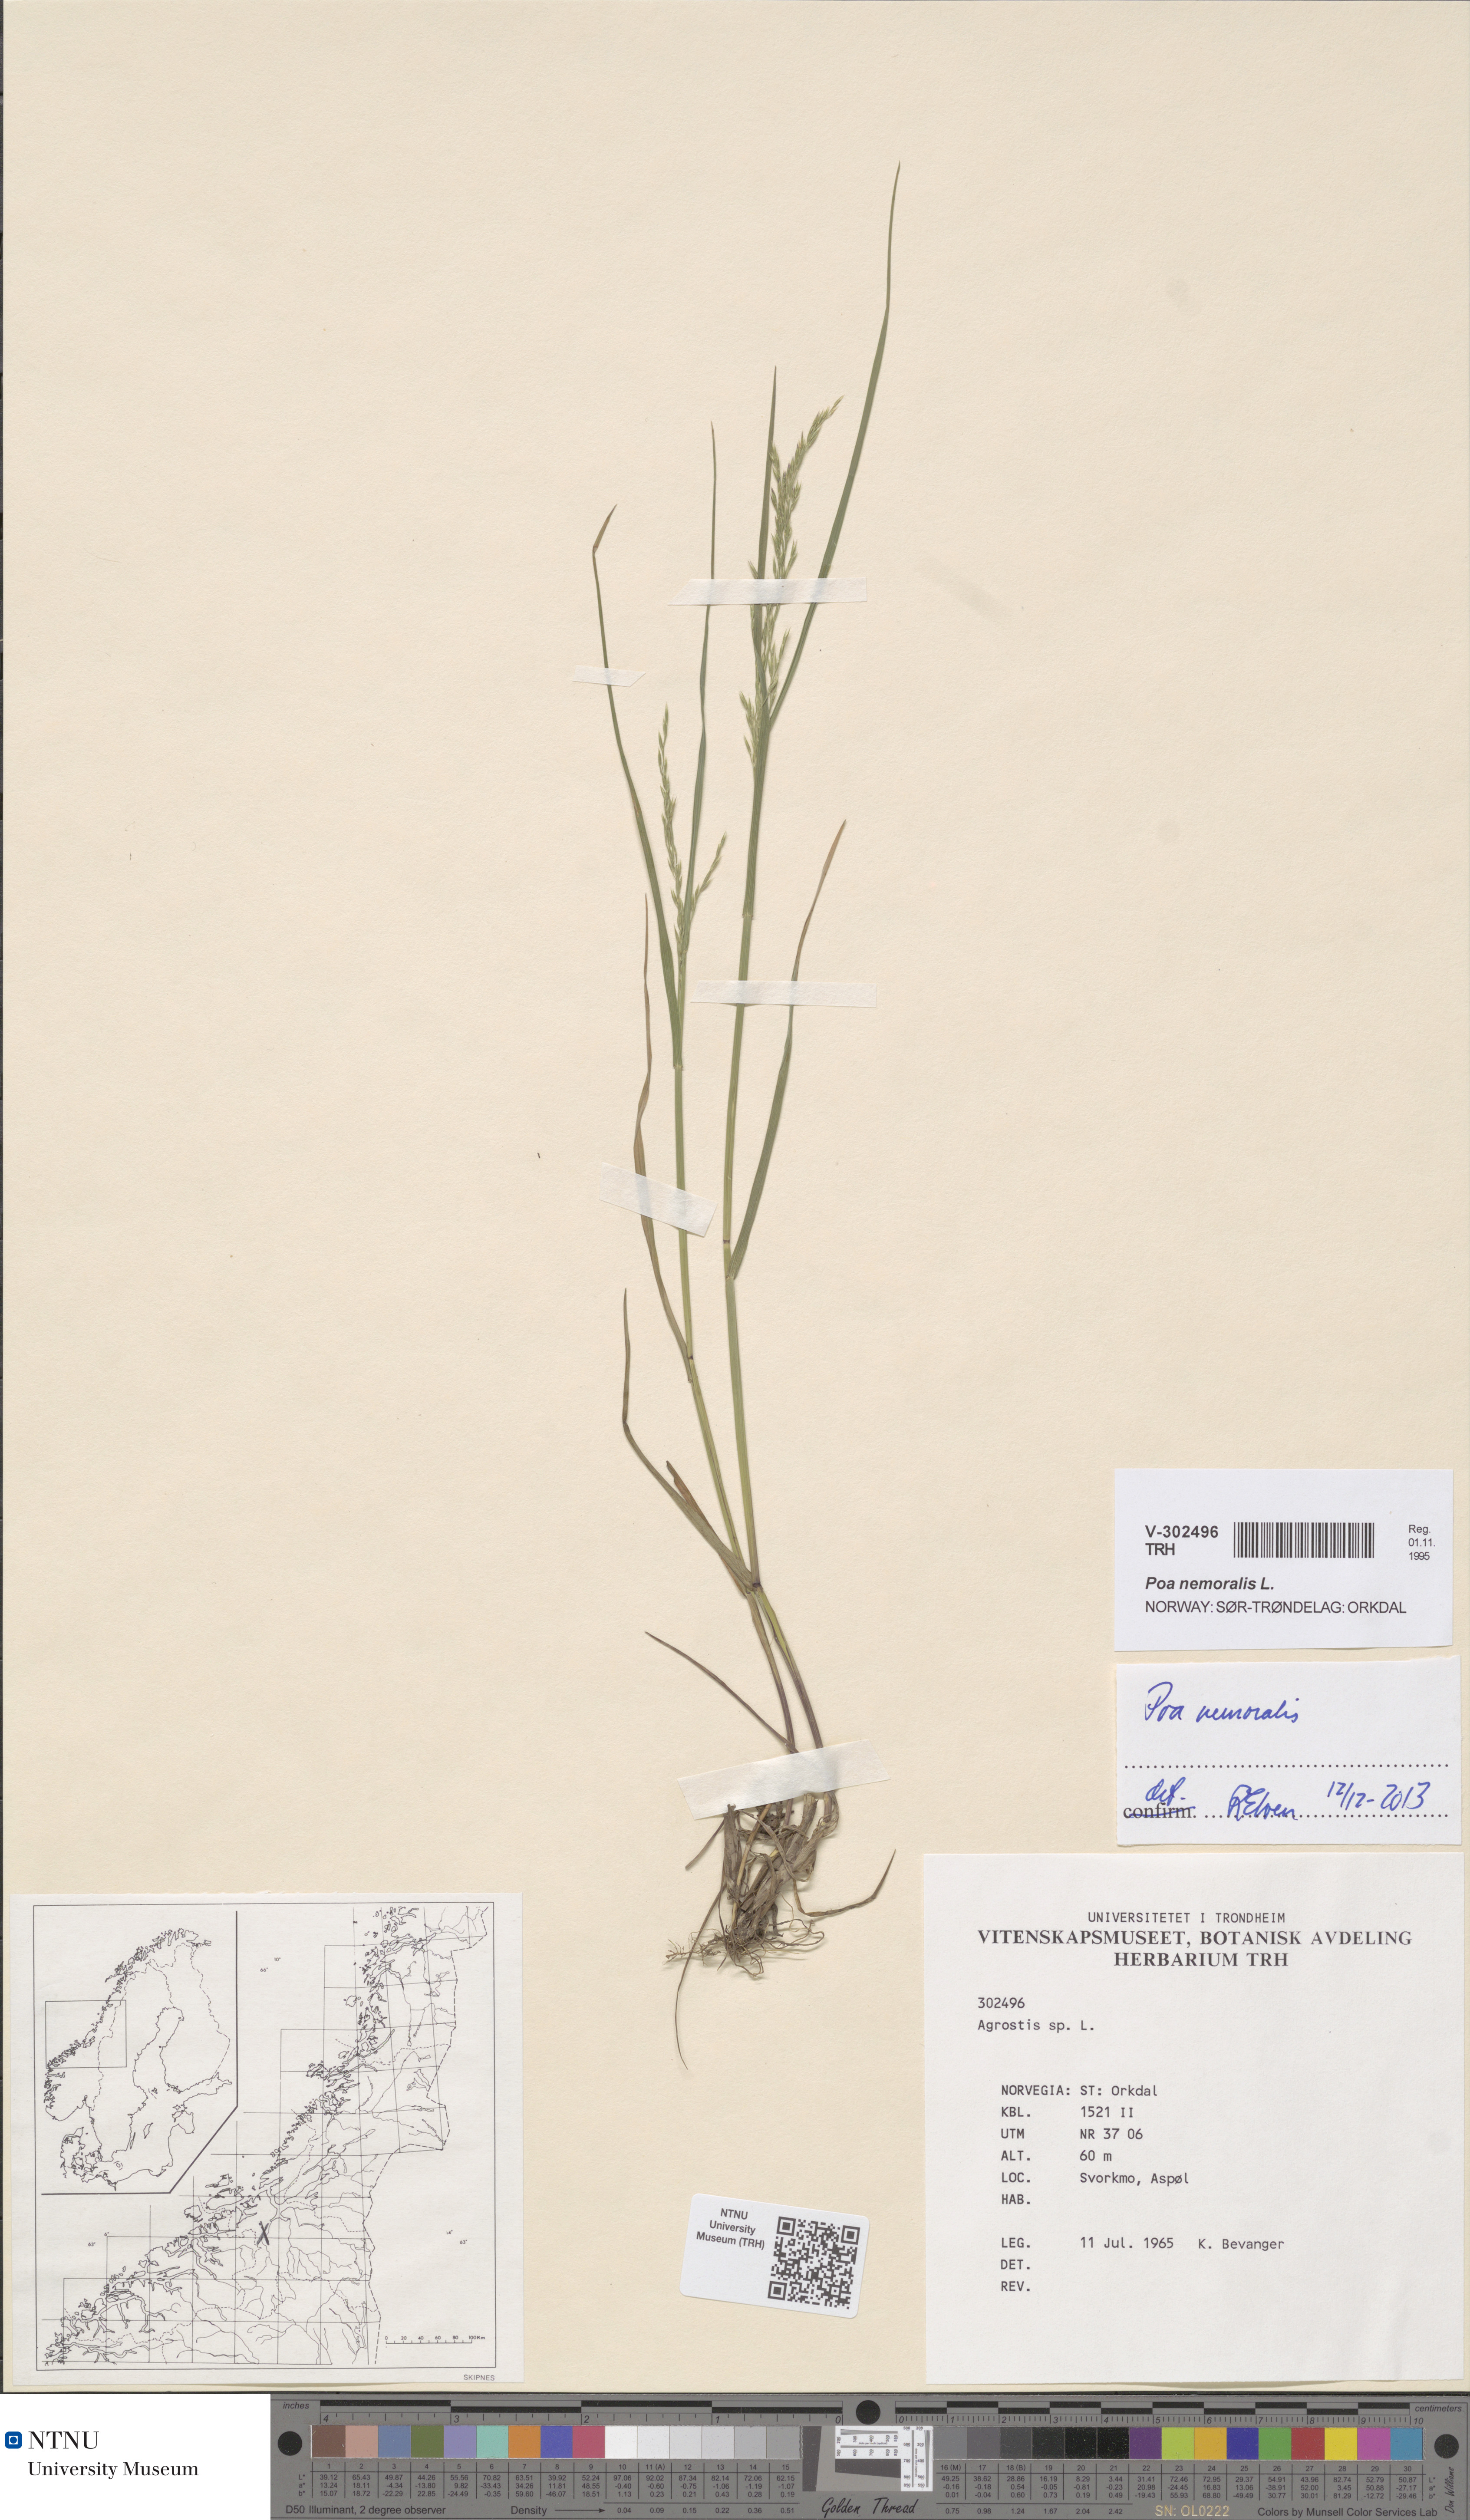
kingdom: Plantae
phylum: Tracheophyta
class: Liliopsida
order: Poales
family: Poaceae
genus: Poa
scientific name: Poa nemoralis
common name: Wood bluegrass
